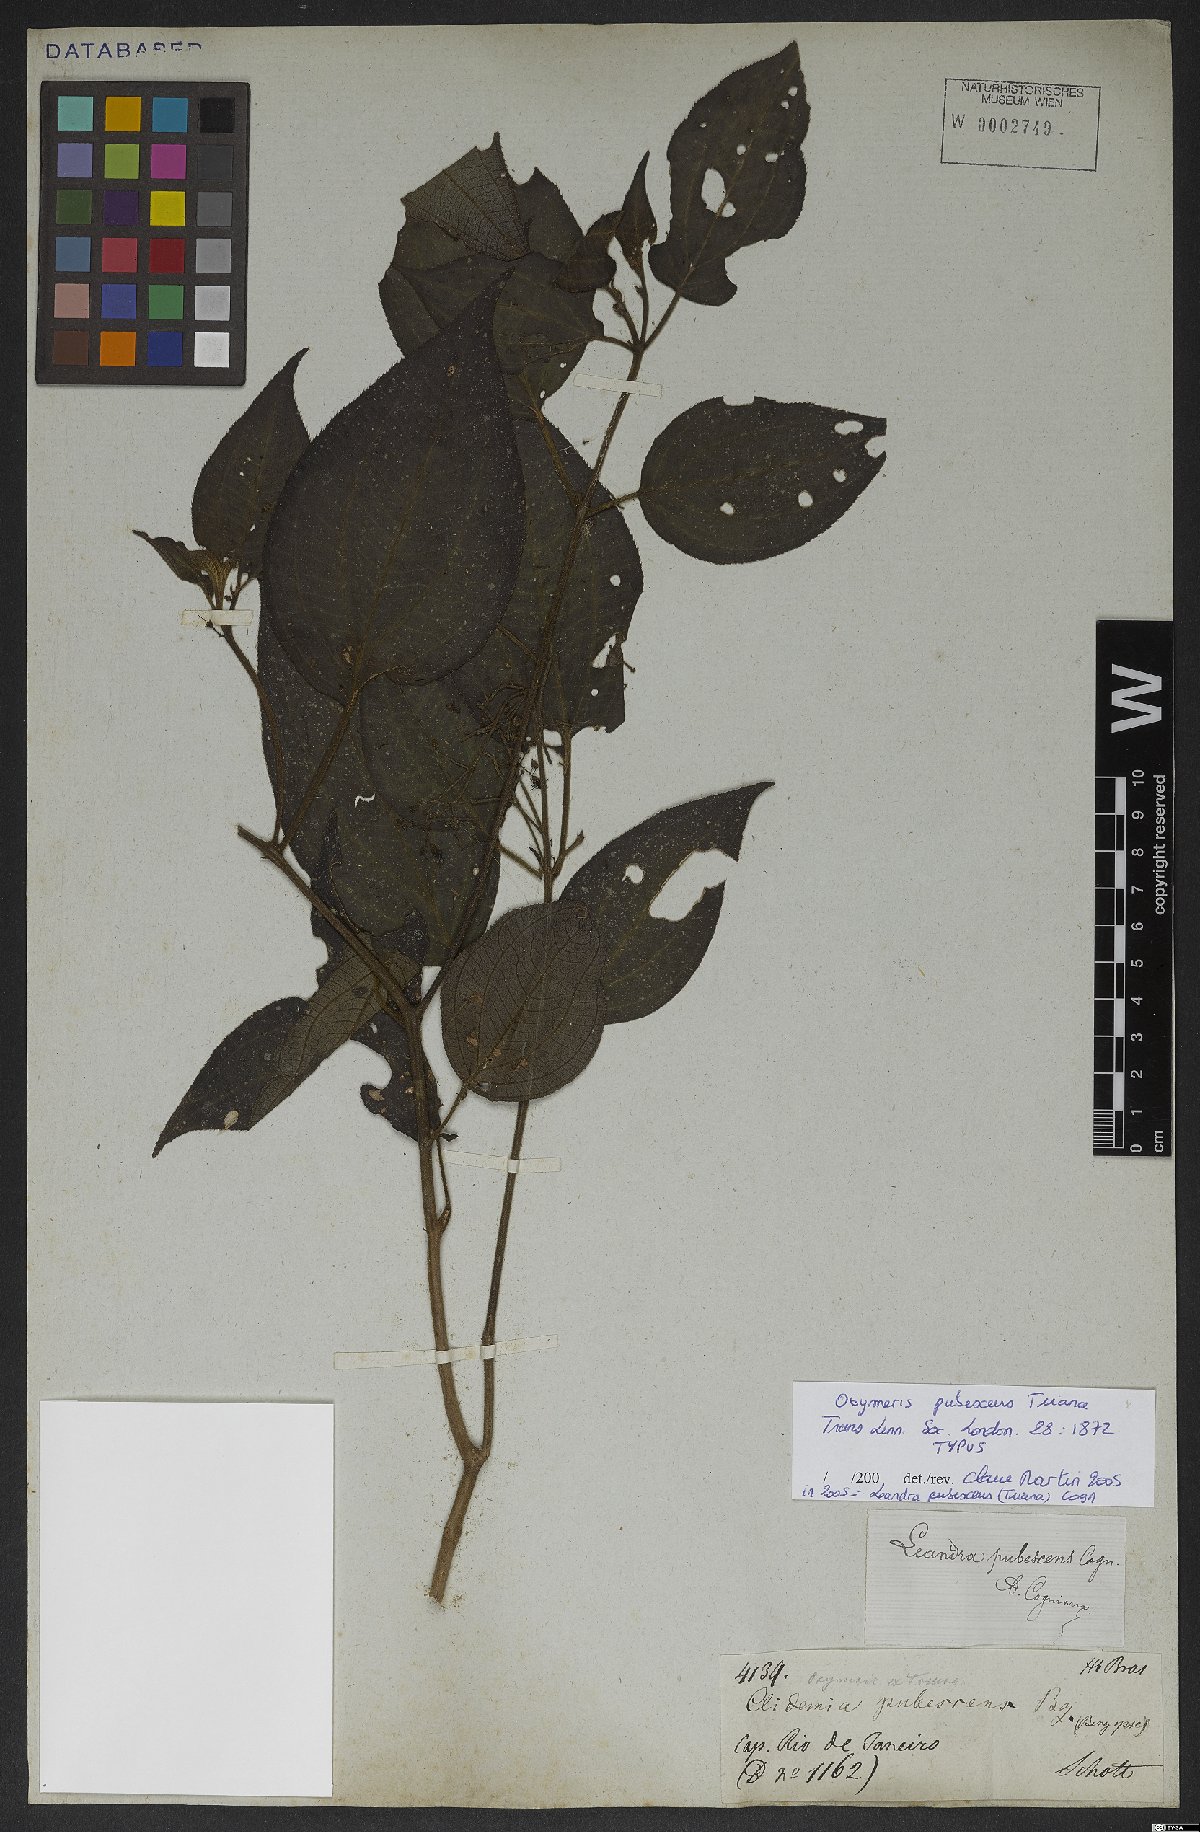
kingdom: Plantae
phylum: Tracheophyta
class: Magnoliopsida
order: Myrtales
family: Melastomataceae
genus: Miconia
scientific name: Miconia strigilliflora
